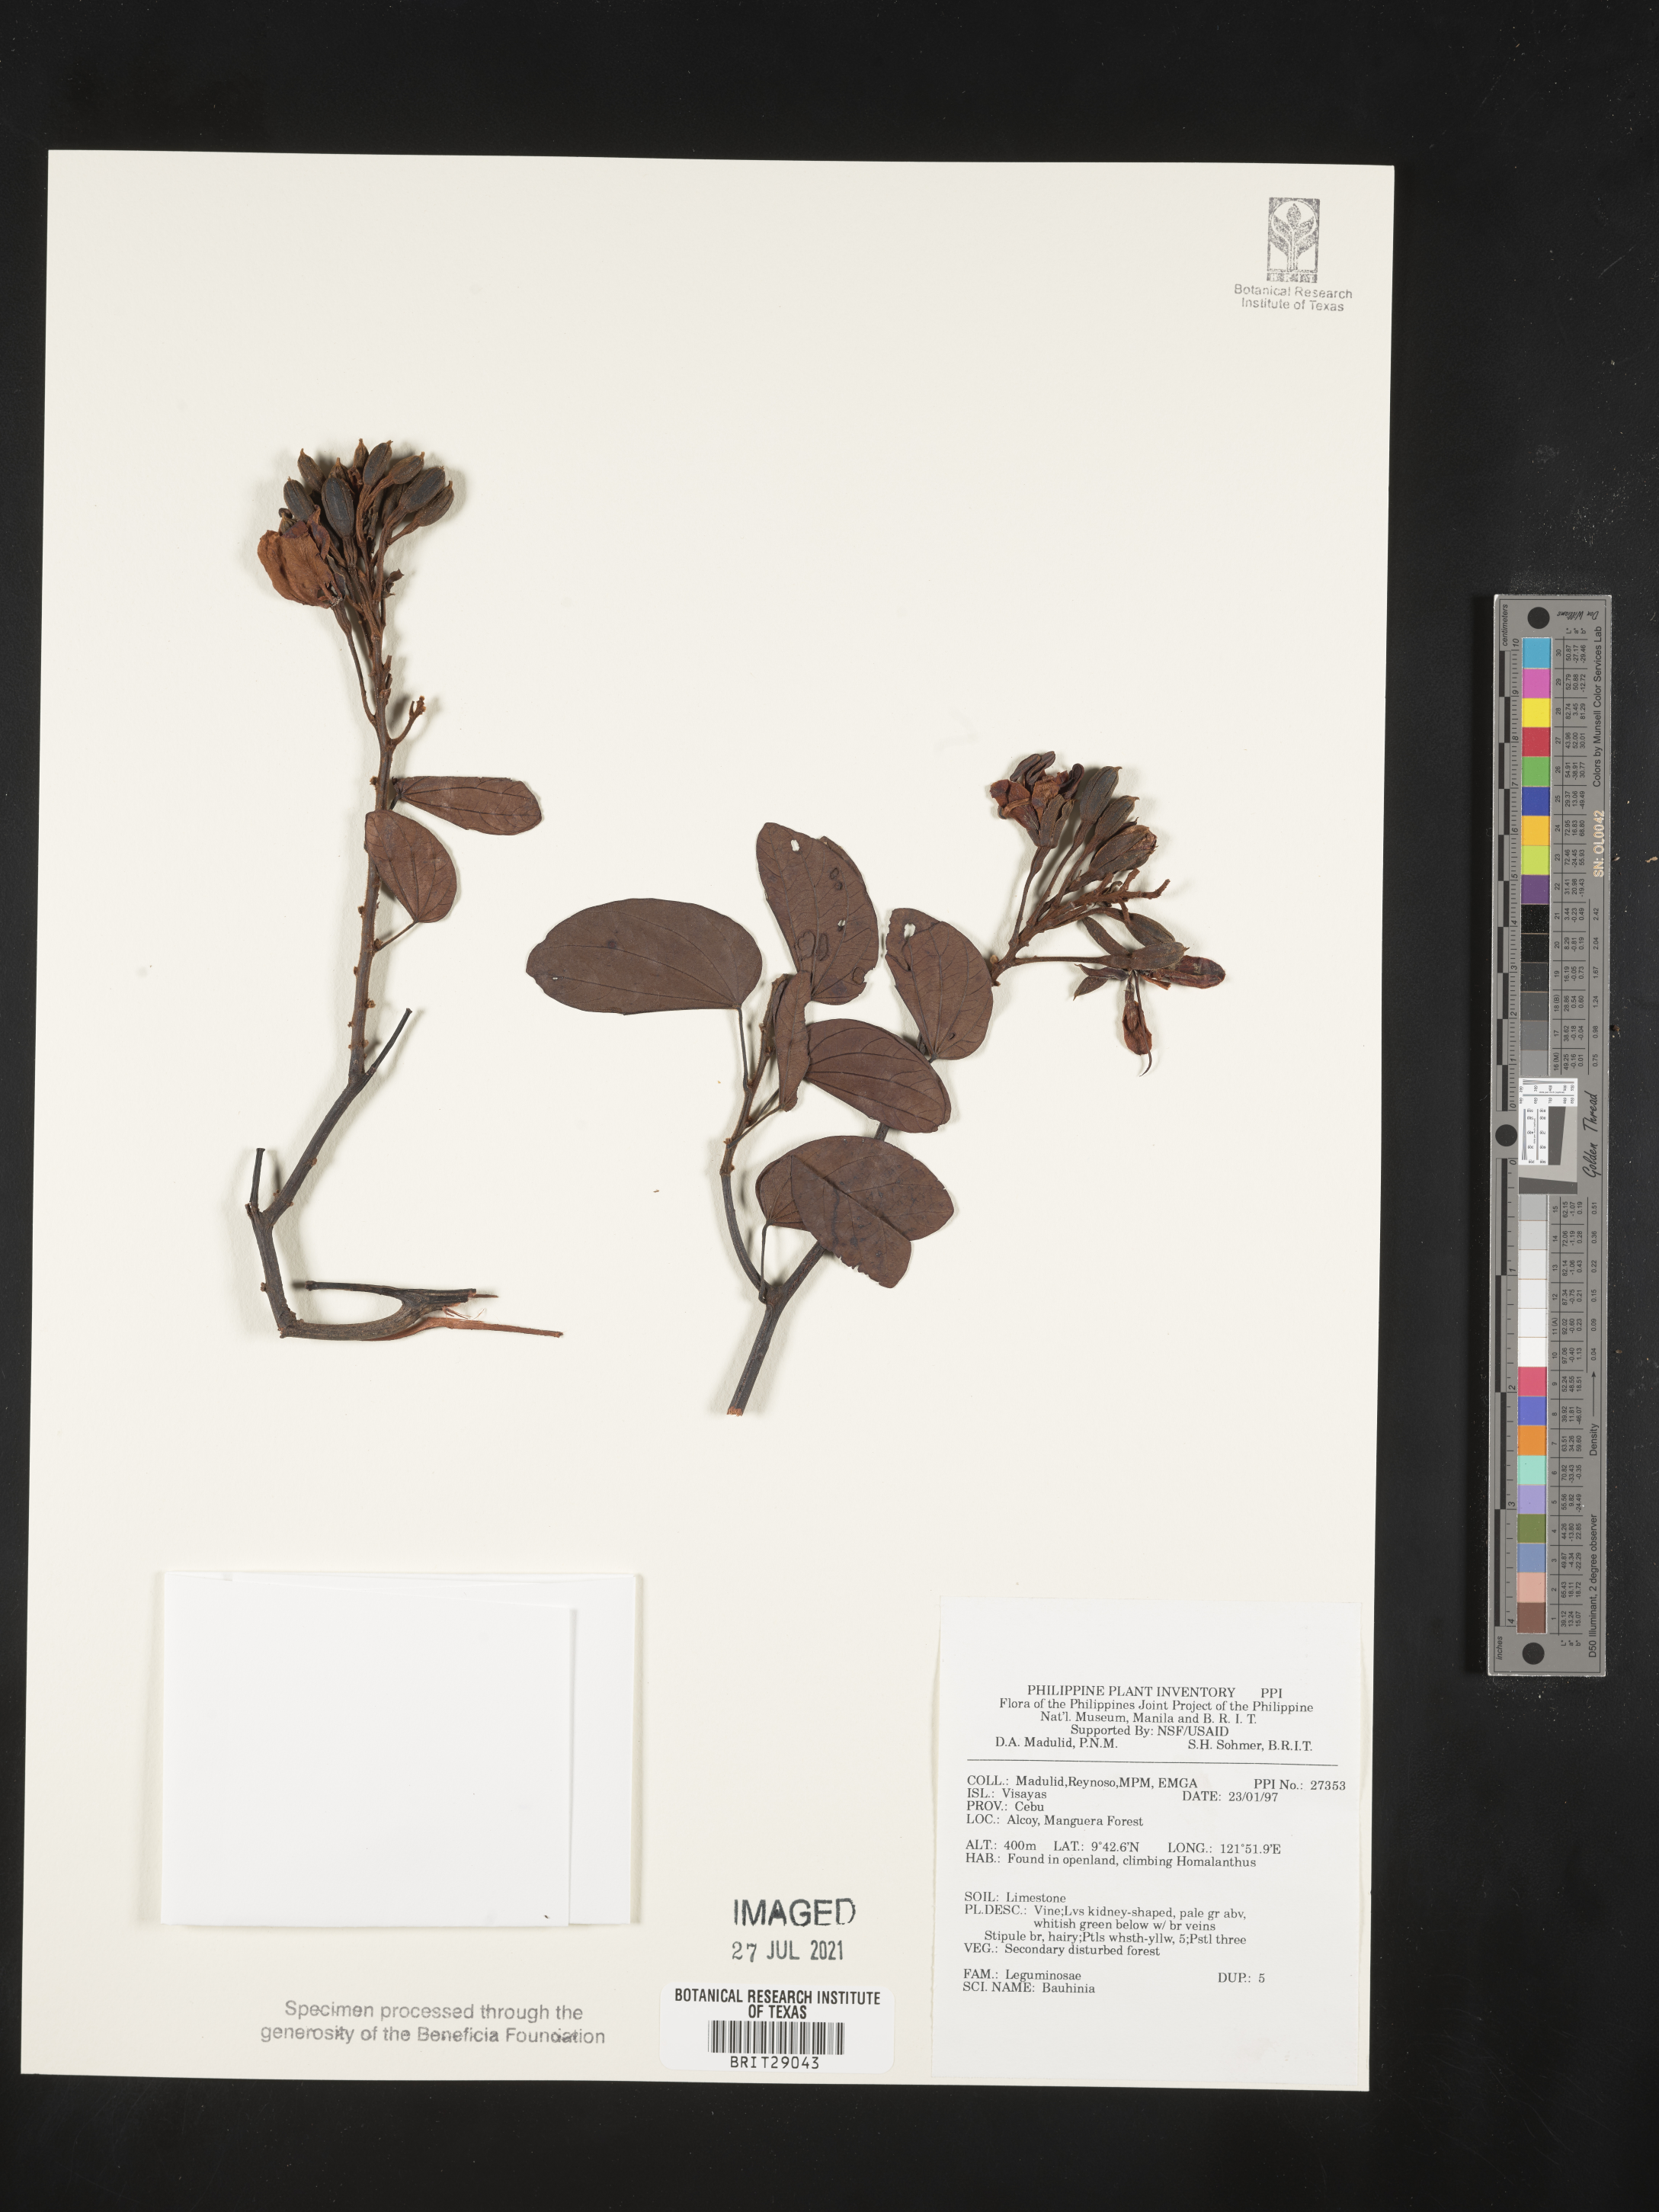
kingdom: Plantae
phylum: Tracheophyta
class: Magnoliopsida
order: Fabales
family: Fabaceae
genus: Bauhinia
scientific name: Bauhinia
